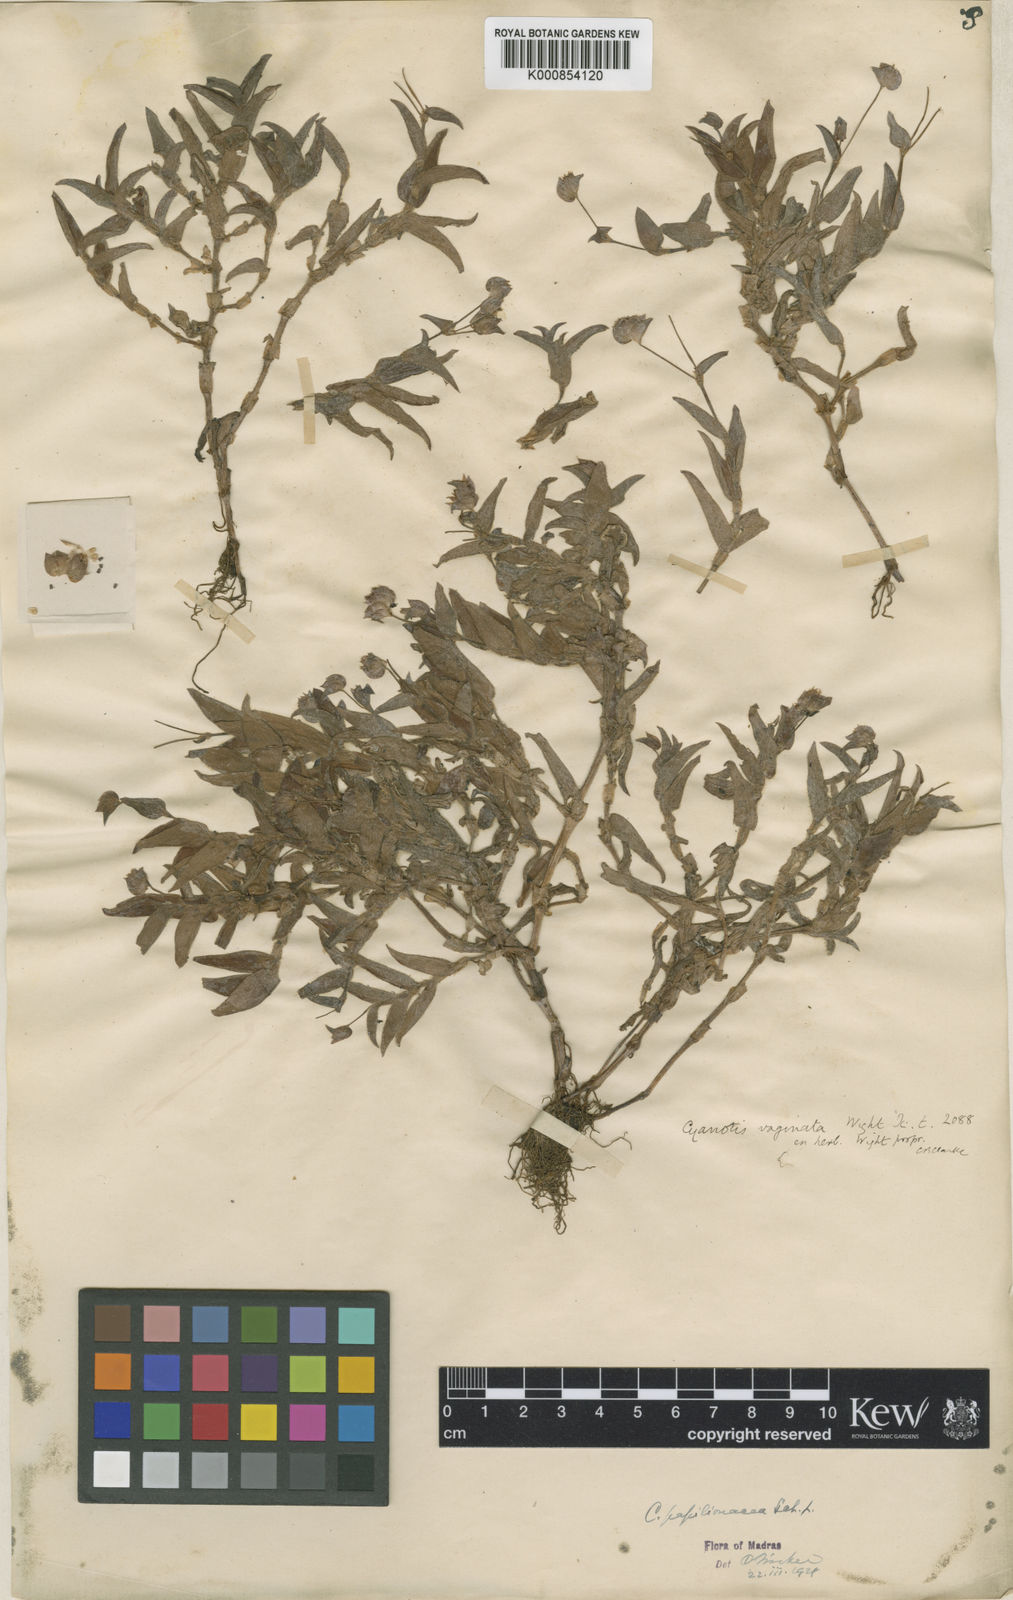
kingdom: Plantae
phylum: Tracheophyta
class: Liliopsida
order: Commelinales
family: Commelinaceae
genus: Cyanotis
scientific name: Cyanotis burmanniana
